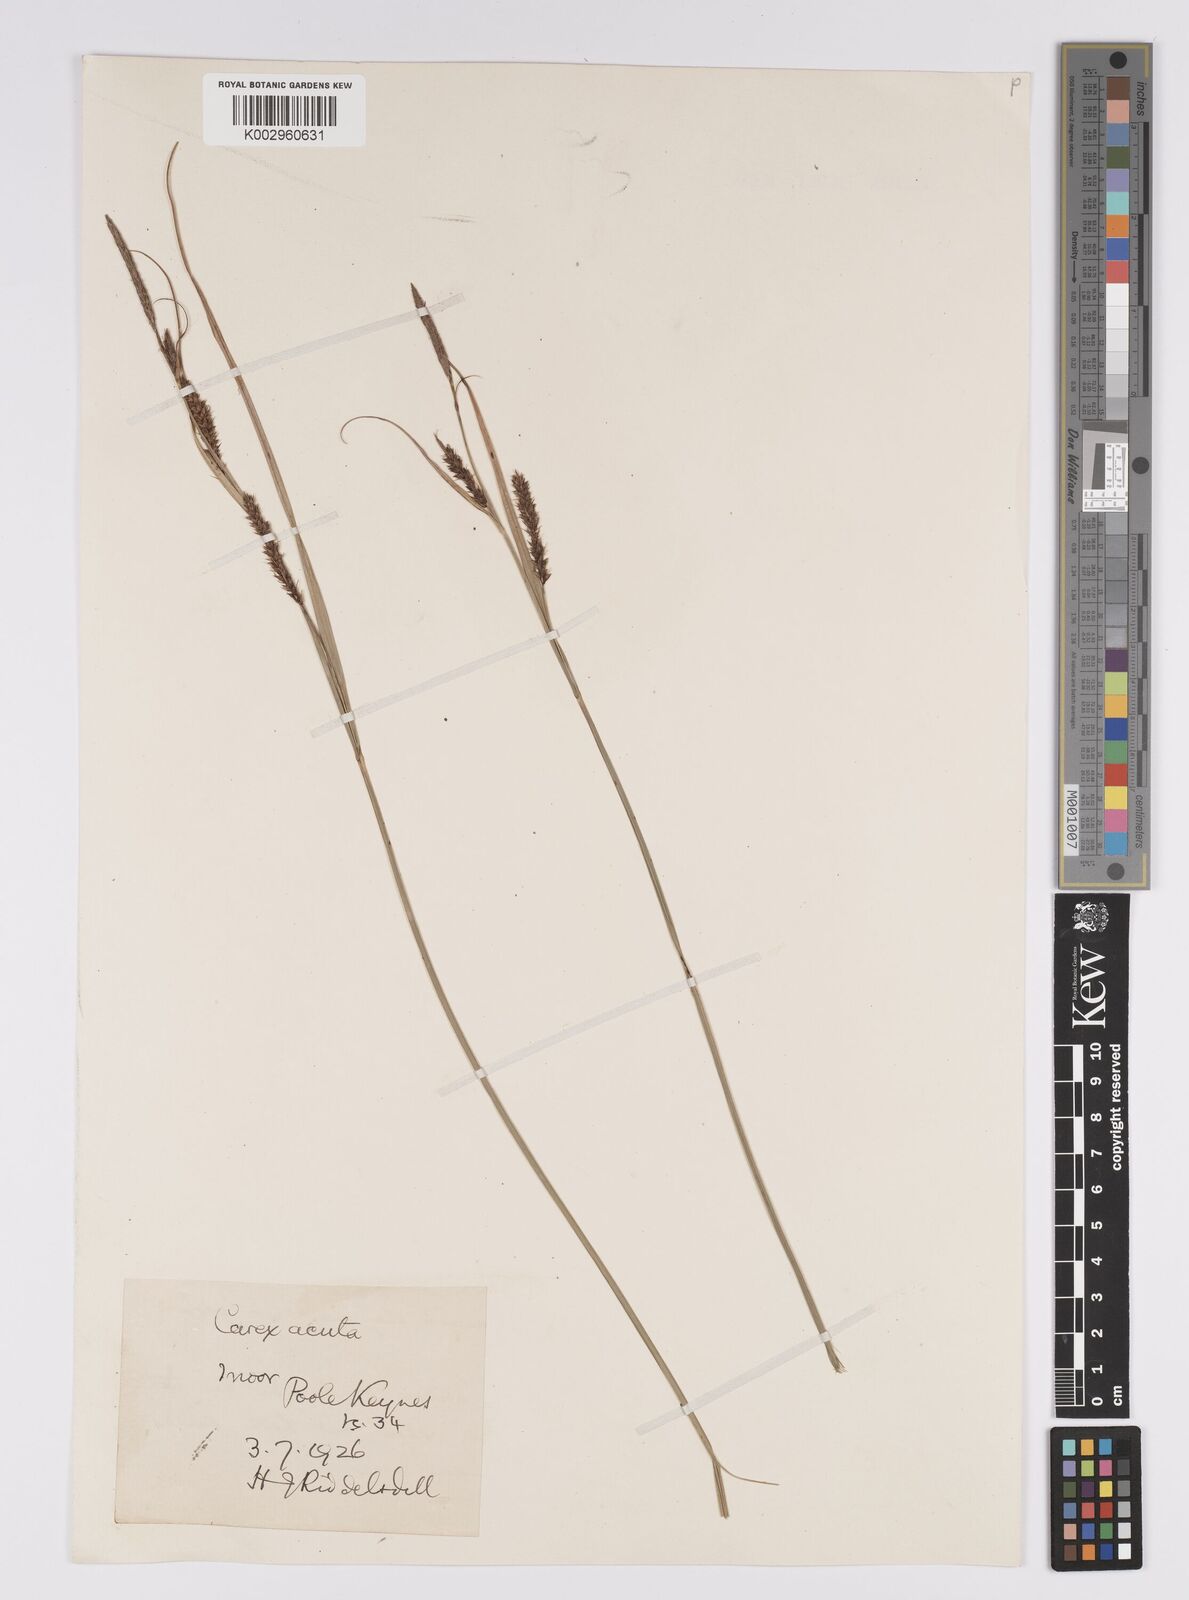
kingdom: Plantae
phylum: Tracheophyta
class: Liliopsida
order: Poales
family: Cyperaceae
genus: Carex
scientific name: Carex acutiformis
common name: Lesser pond-sedge
